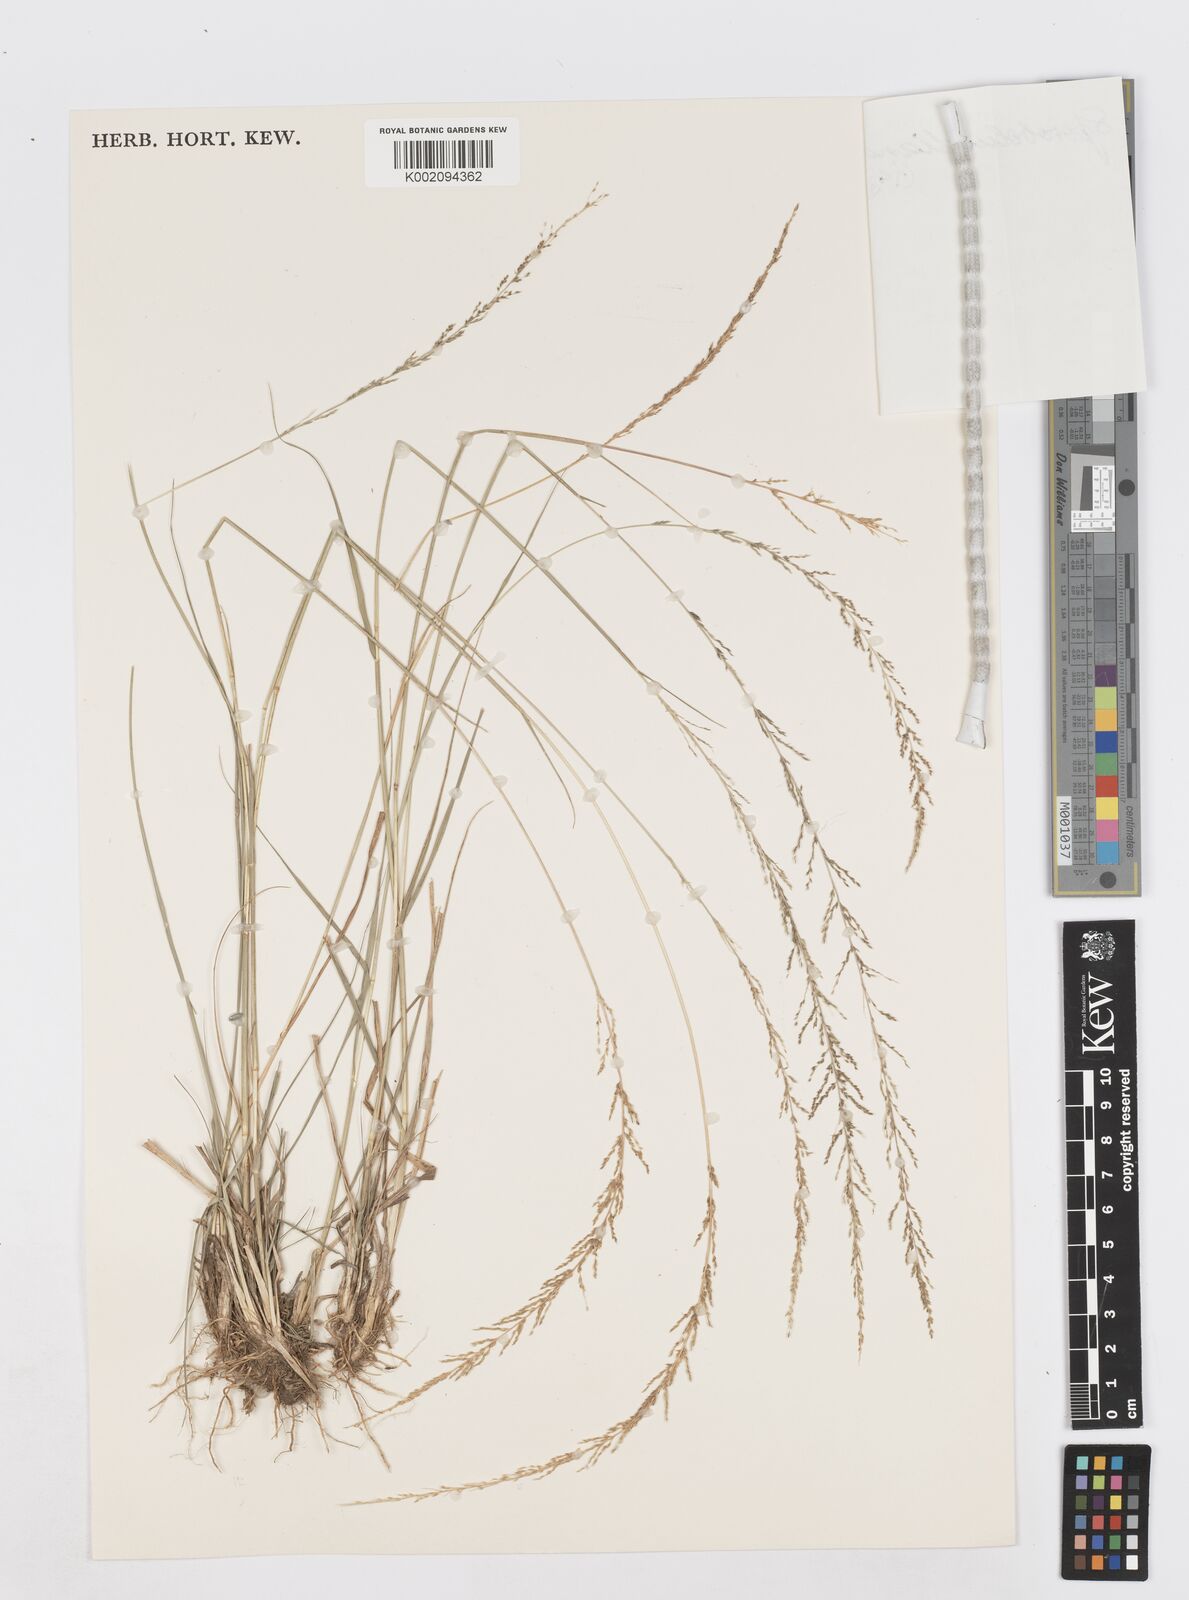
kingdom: Plantae
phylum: Tracheophyta
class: Liliopsida
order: Poales
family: Poaceae
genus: Sporobolus
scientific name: Sporobolus diandrus
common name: Tussock dropseed
